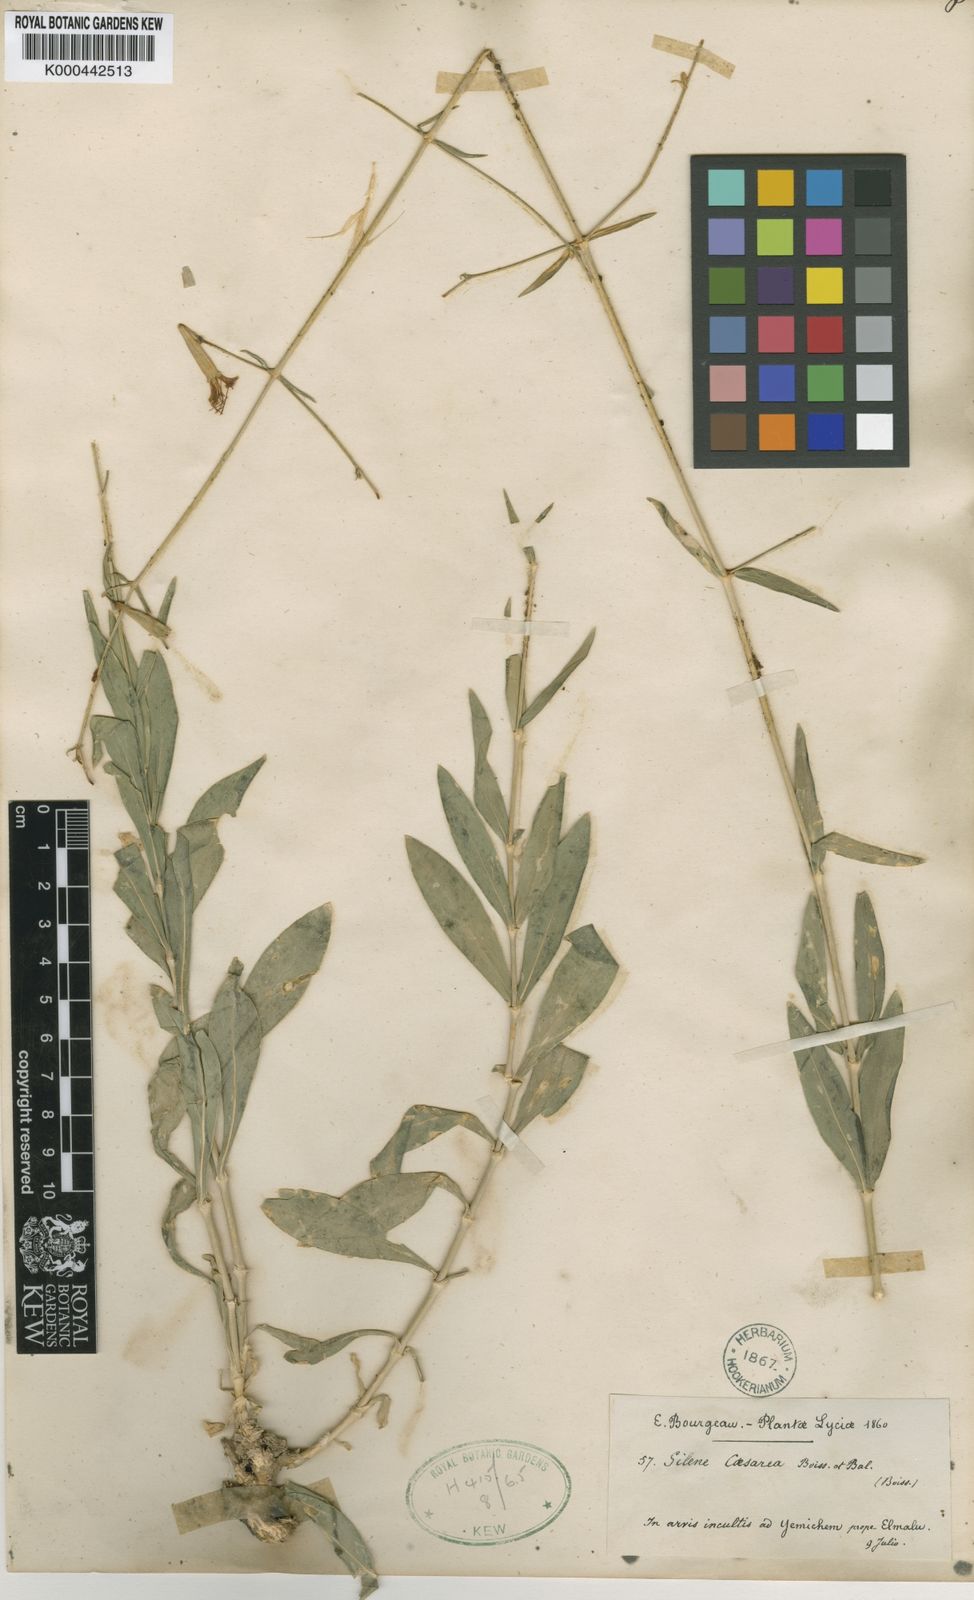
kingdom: Plantae
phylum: Tracheophyta
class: Magnoliopsida
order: Caryophyllales
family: Caryophyllaceae
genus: Silene
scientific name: Silene caesarea
